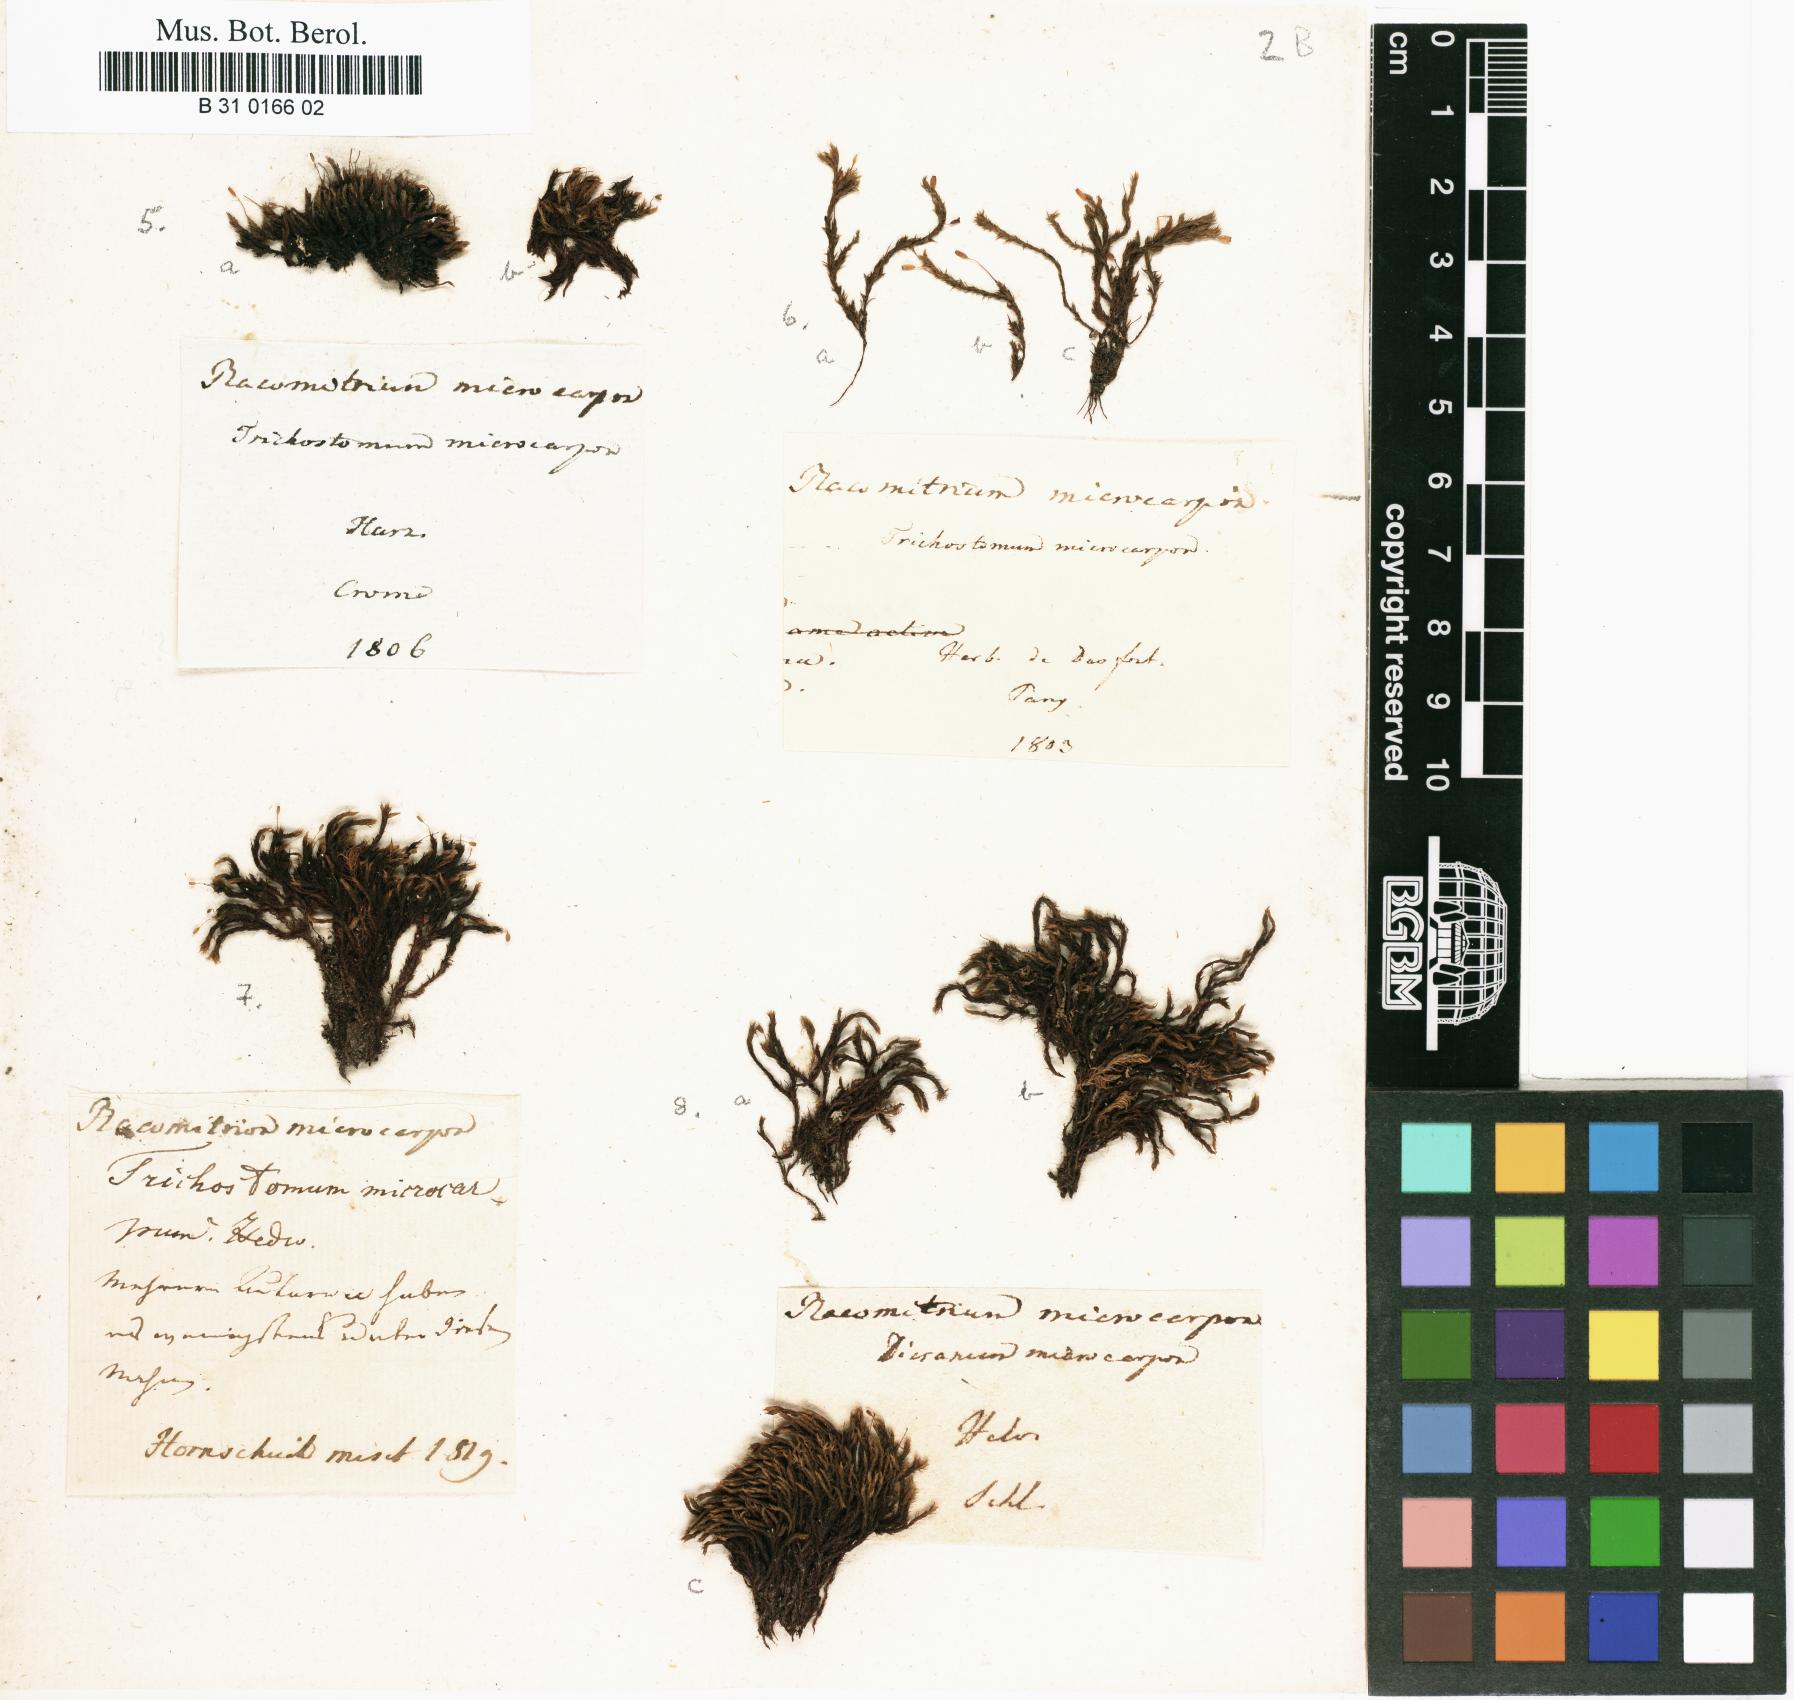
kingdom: Plantae
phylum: Bryophyta
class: Bryopsida
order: Grimmiales
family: Grimmiaceae
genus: Bucklandiella
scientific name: Bucklandiella microcarpos
